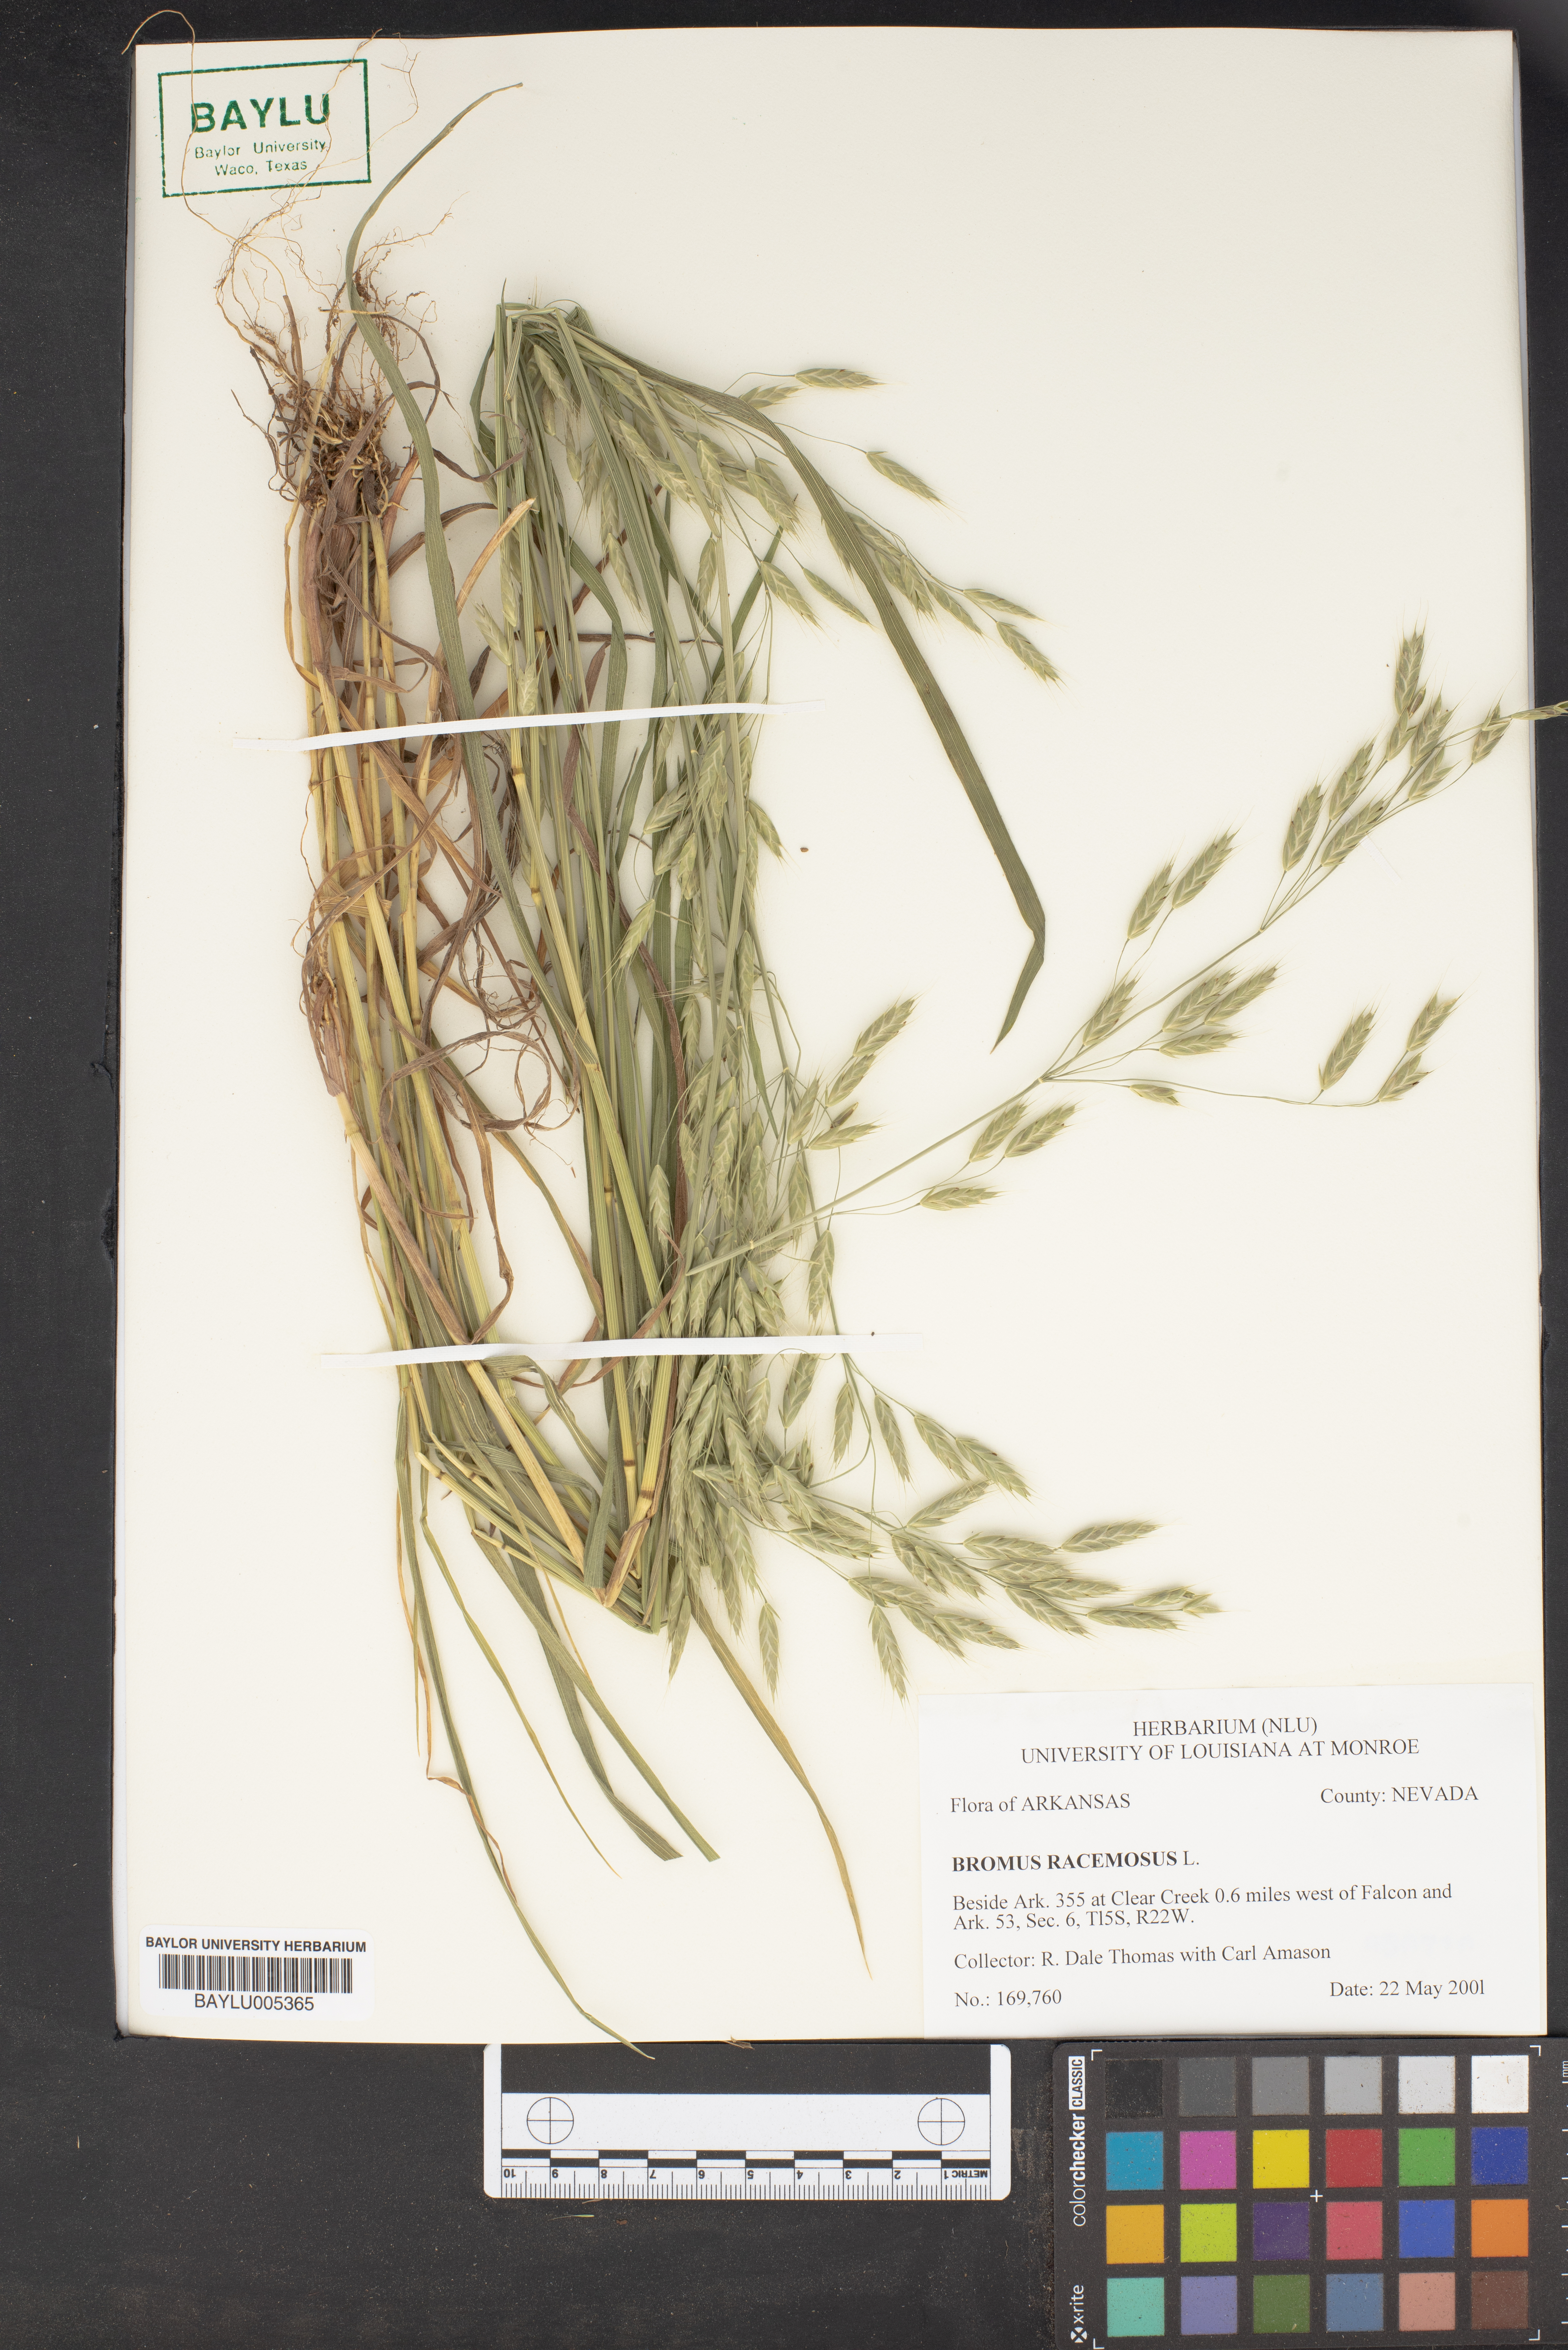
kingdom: Plantae
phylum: Tracheophyta
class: Liliopsida
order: Poales
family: Poaceae
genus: Bromus
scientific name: Bromus racemosus
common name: Bald brome
